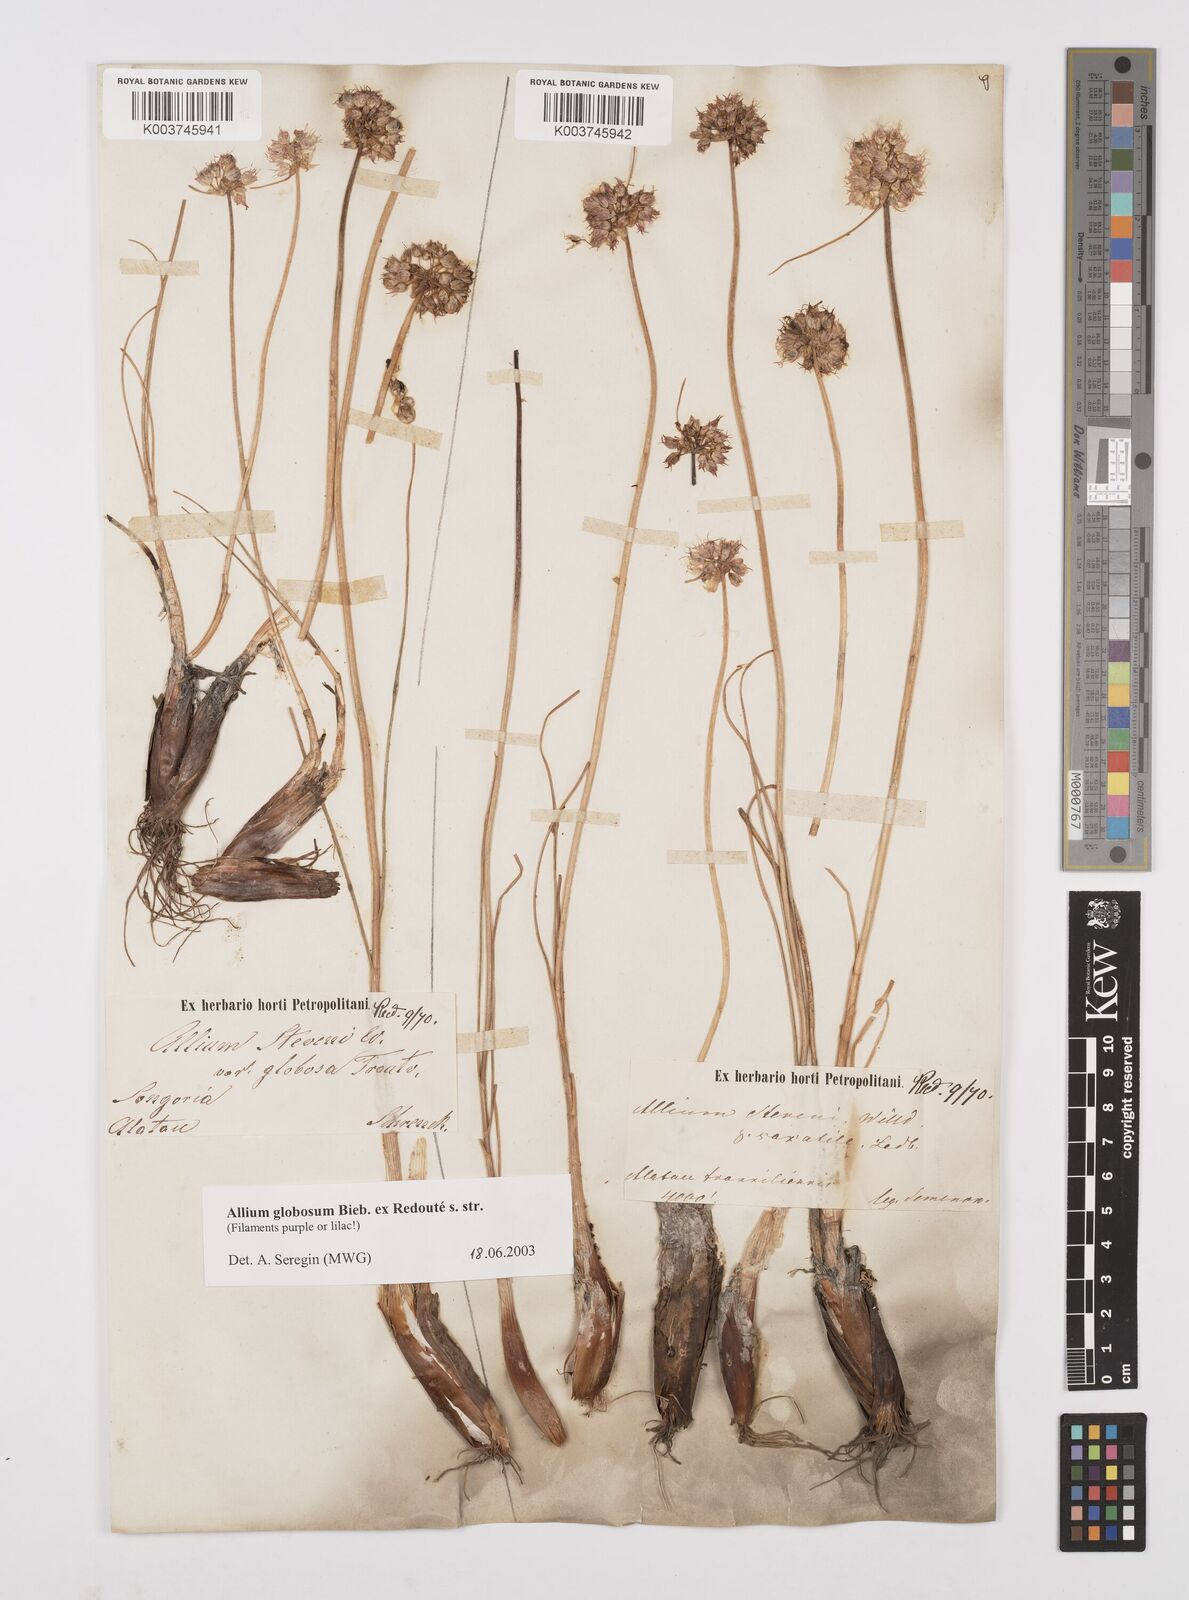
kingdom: Plantae
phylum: Tracheophyta
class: Liliopsida
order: Asparagales
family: Amaryllidaceae
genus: Allium
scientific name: Allium saxatile
